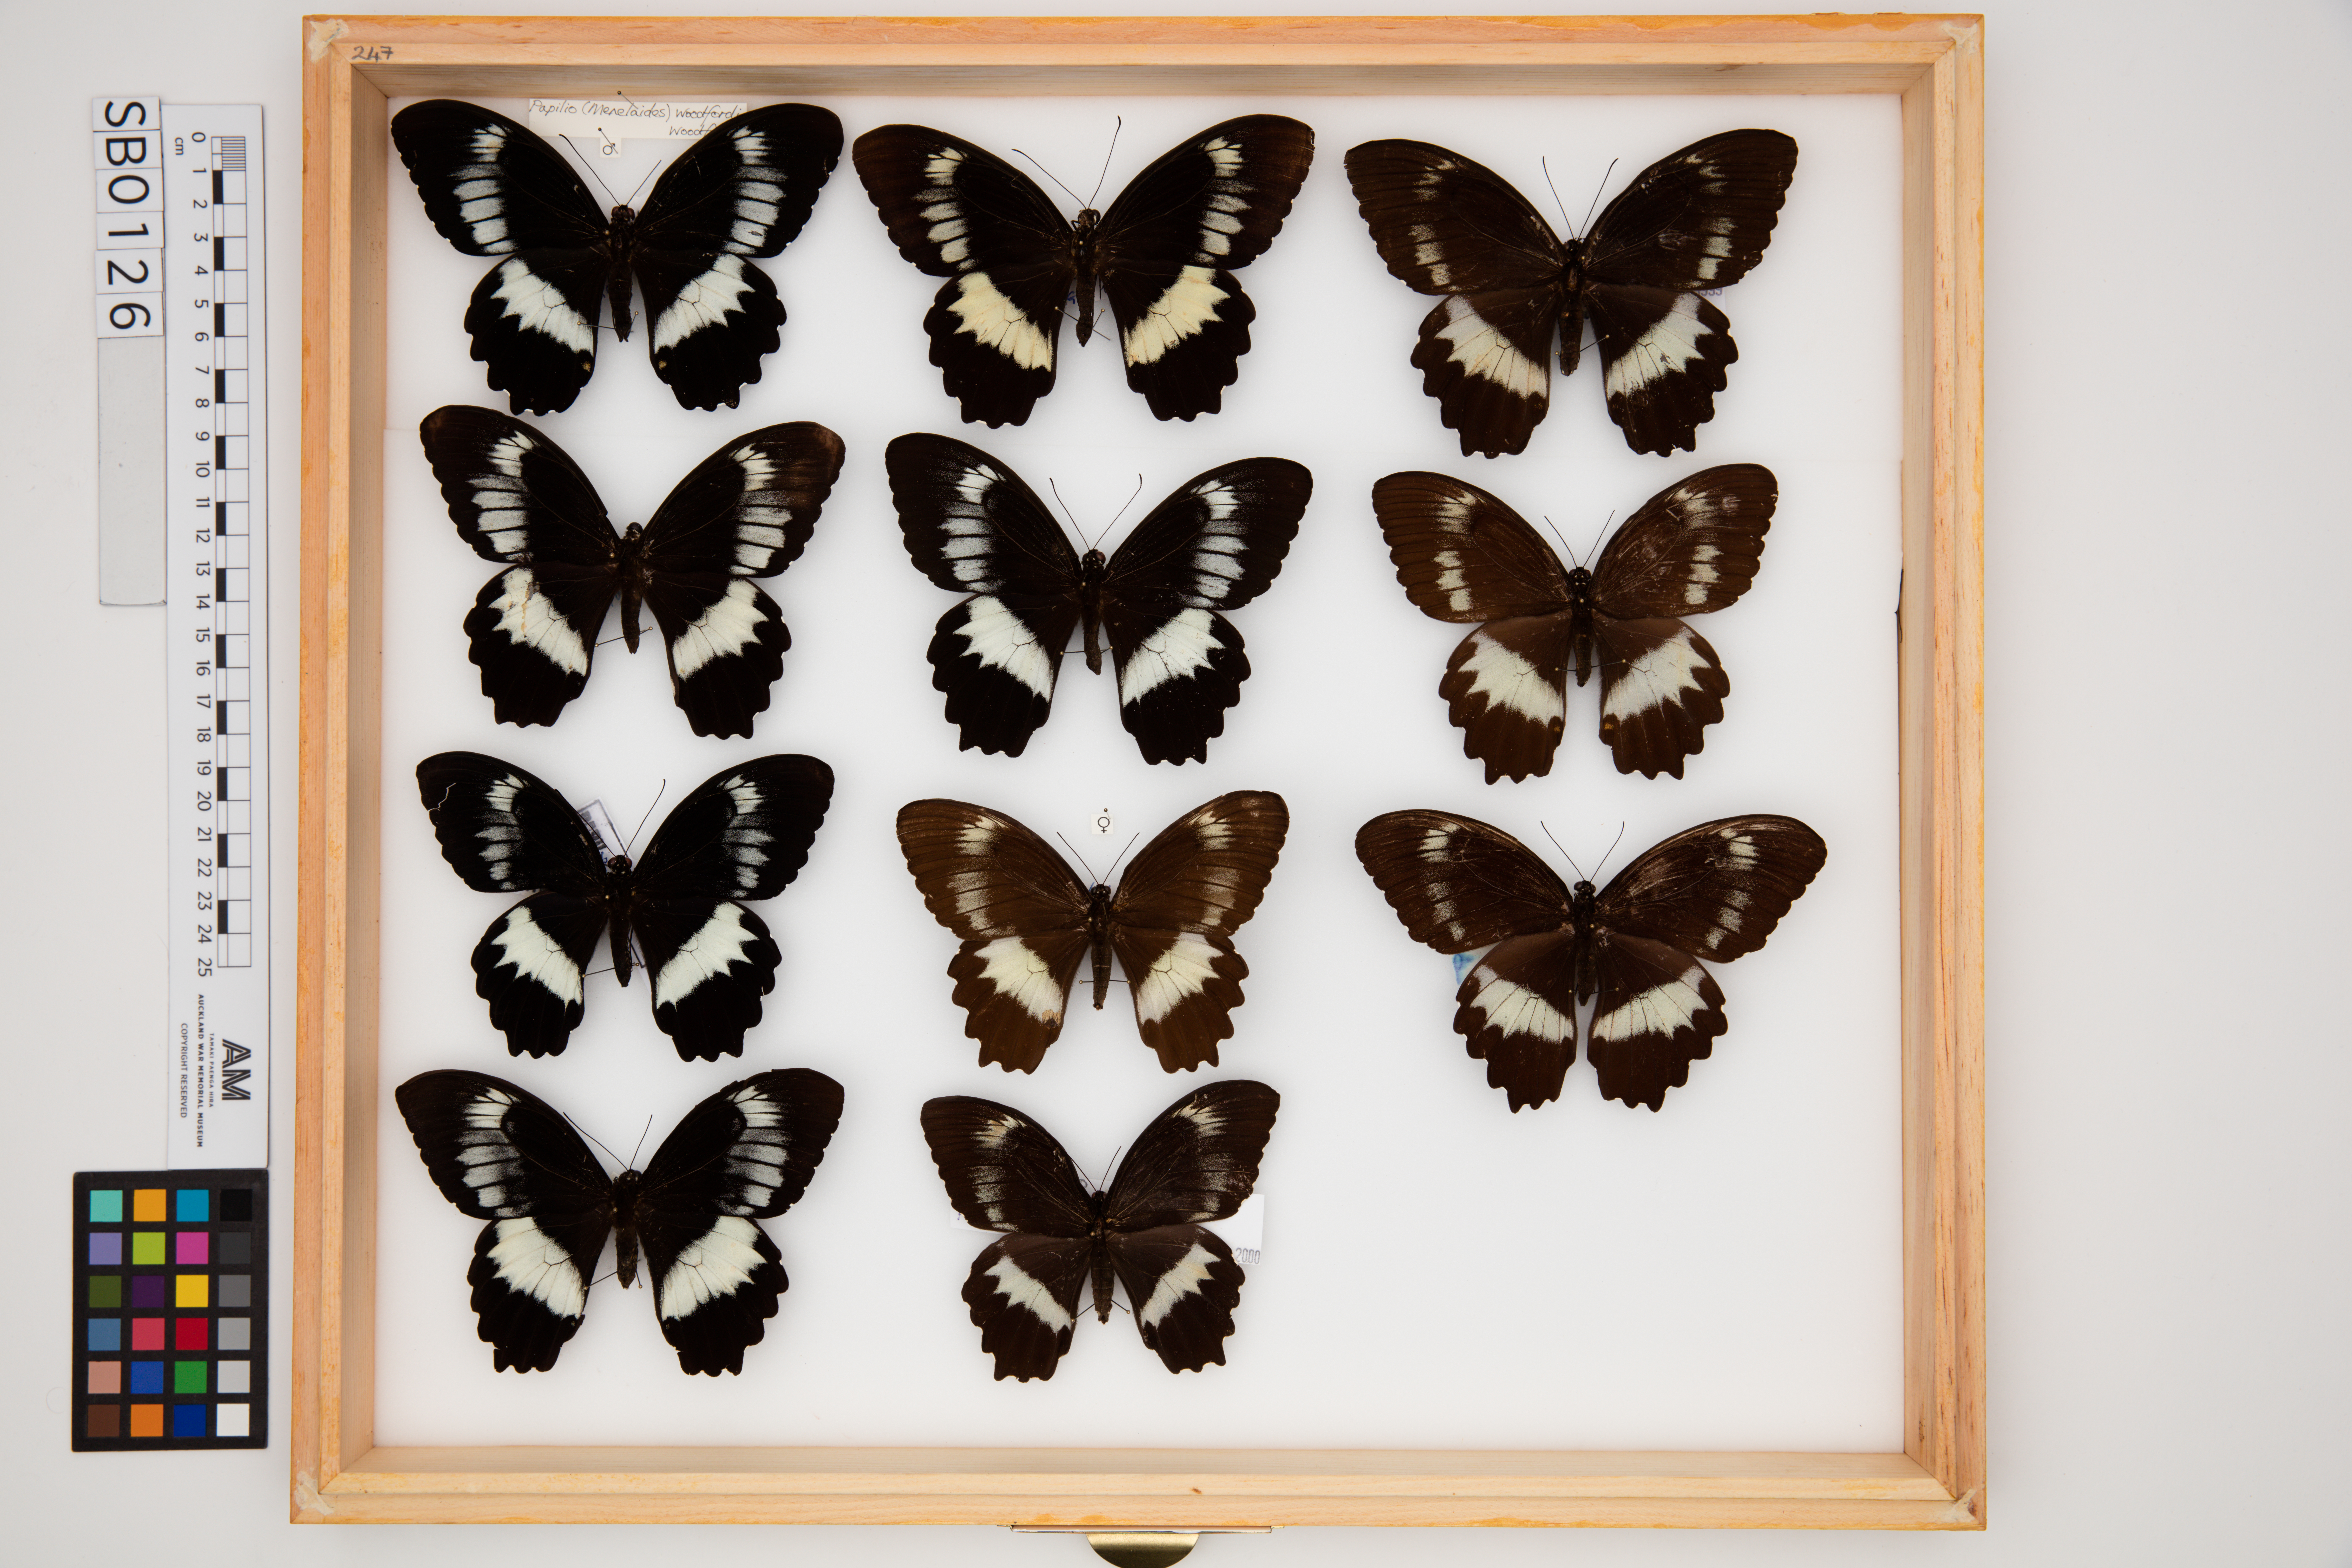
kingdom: Animalia
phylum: Arthropoda
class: Insecta
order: Lepidoptera
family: Papilionidae
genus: Papilio
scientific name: Papilio woodfordi
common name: Woodford's swallowtail
